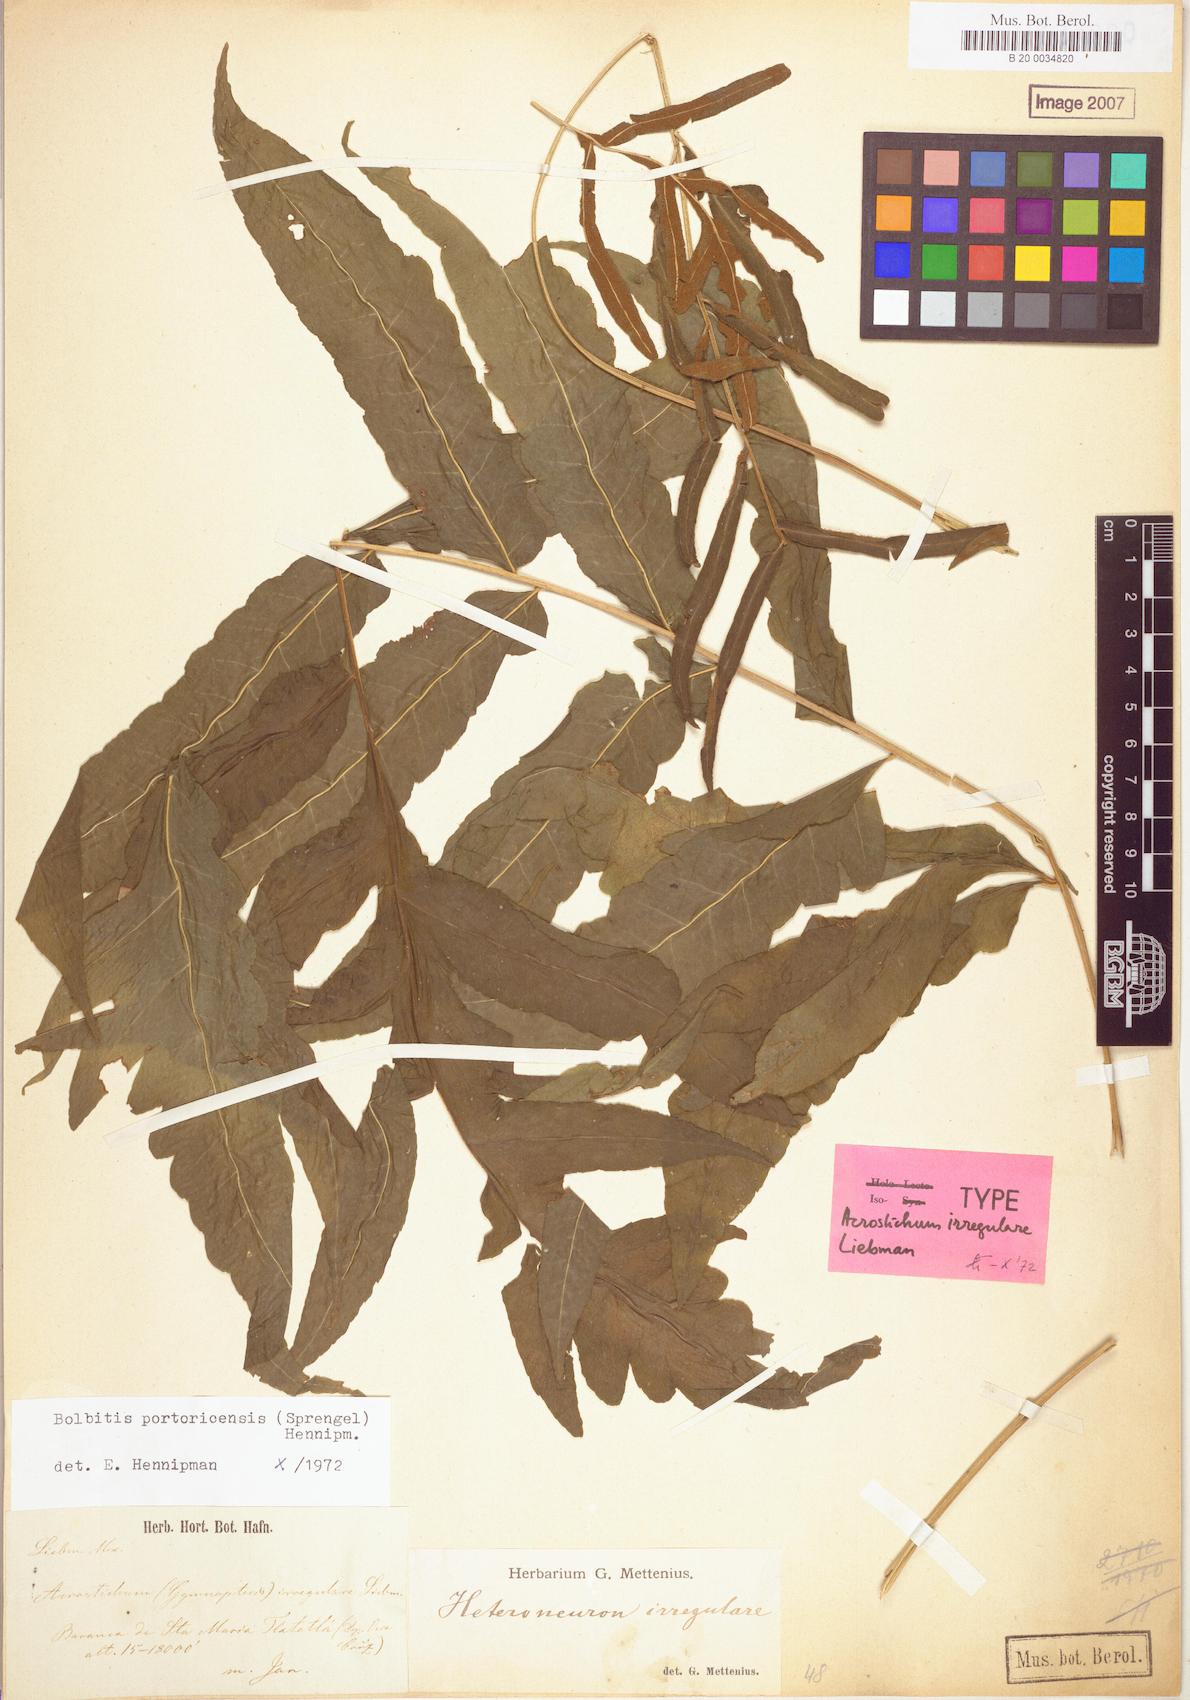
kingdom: Plantae
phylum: Tracheophyta
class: Polypodiopsida
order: Polypodiales
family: Dryopteridaceae
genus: Bolbitis
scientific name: Bolbitis portoricensis
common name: Puerto rico creepingfer
